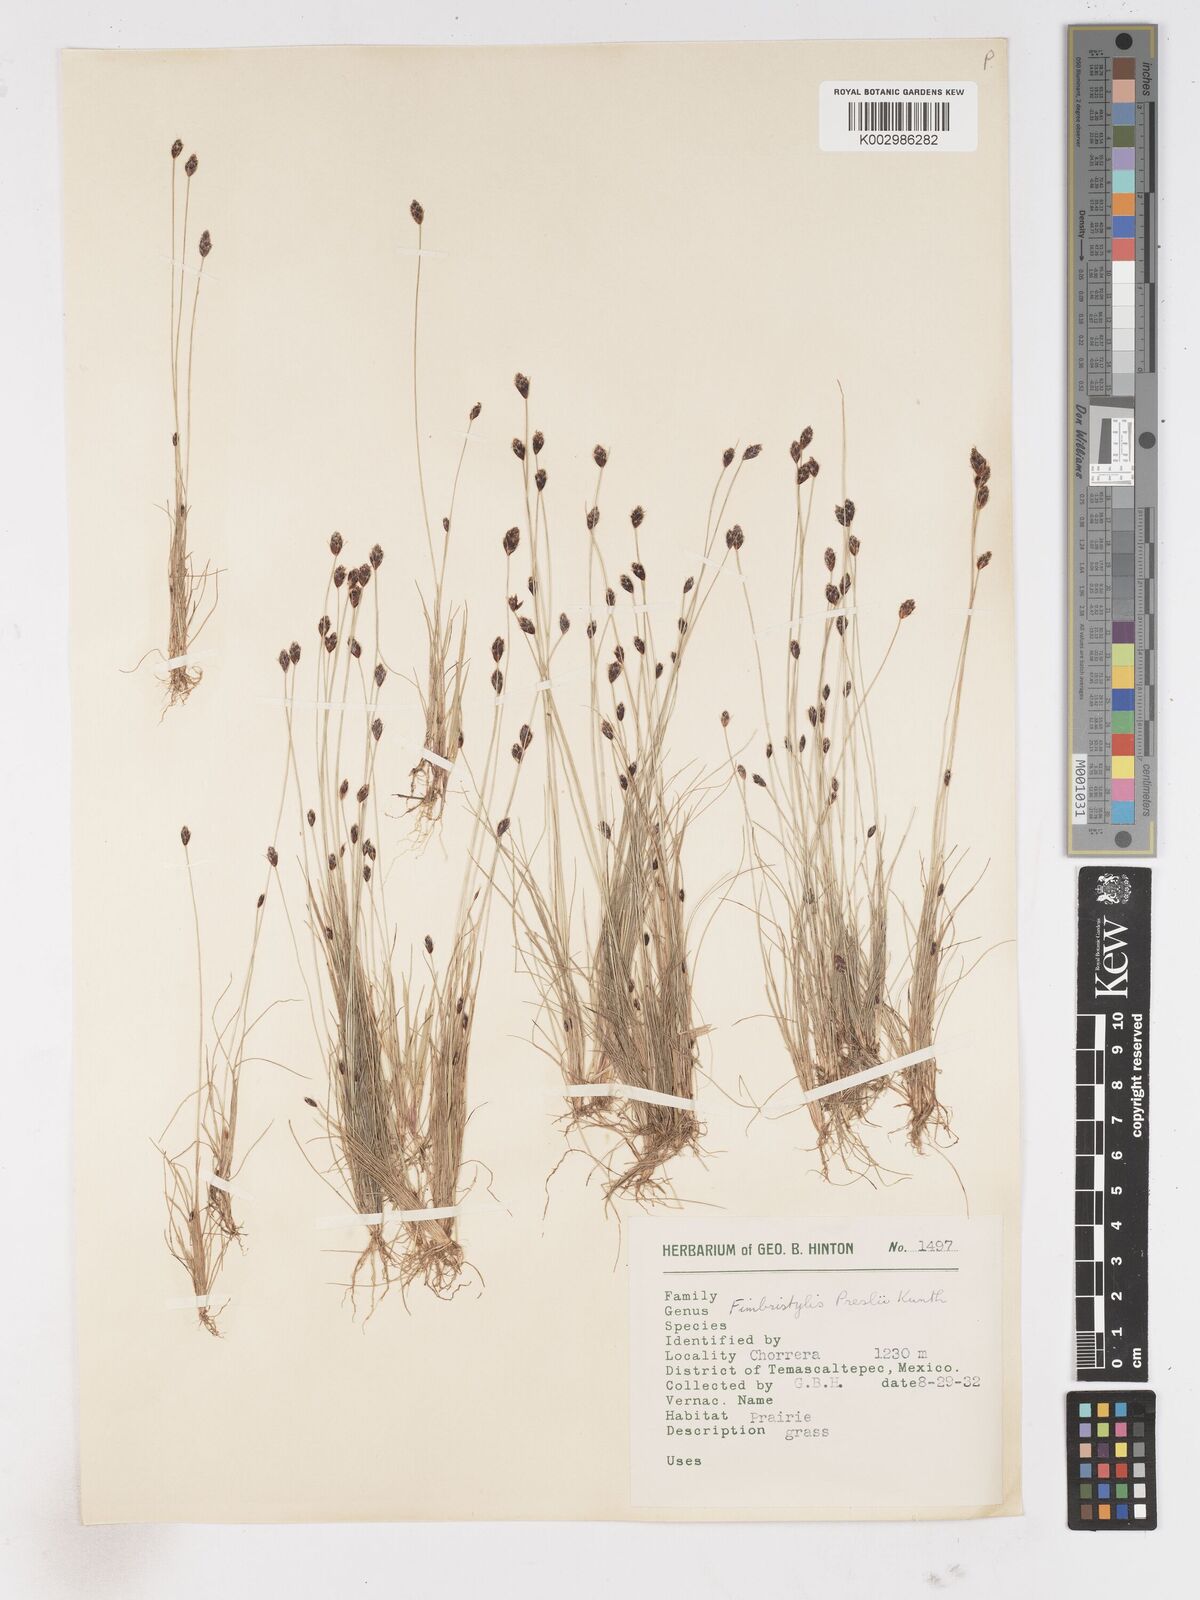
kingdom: Plantae
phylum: Tracheophyta
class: Liliopsida
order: Poales
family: Cyperaceae
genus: Bulbostylis
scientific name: Bulbostylis pubescens
